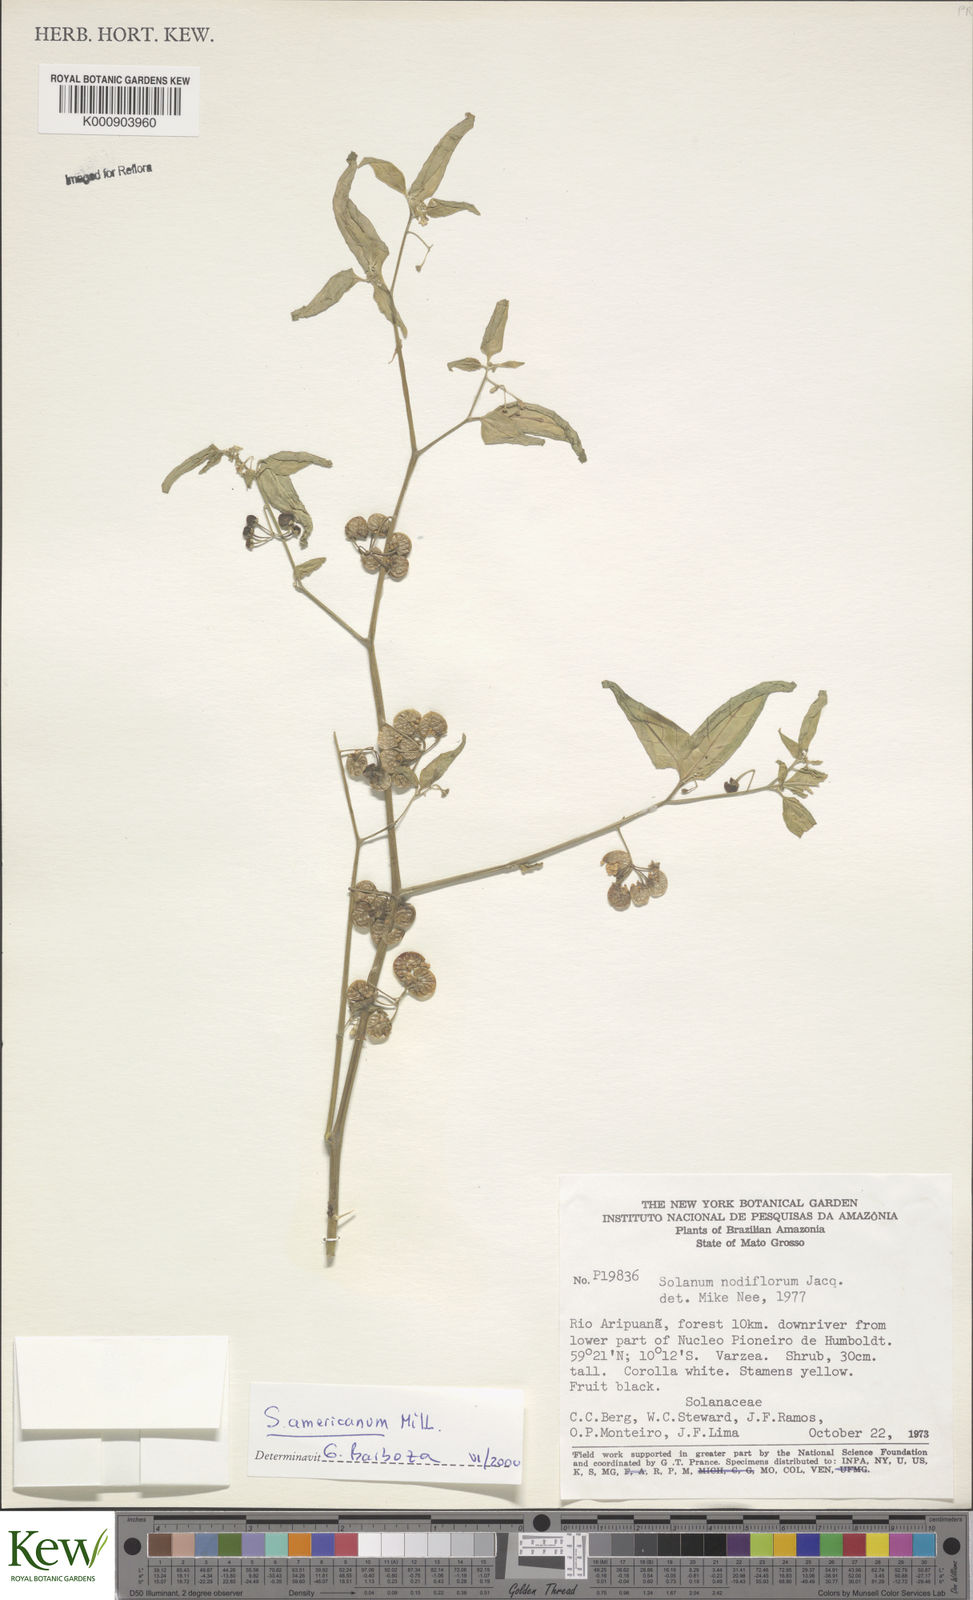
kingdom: Plantae
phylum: Tracheophyta
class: Magnoliopsida
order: Solanales
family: Solanaceae
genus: Solanum
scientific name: Solanum americanum
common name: American black nightshade
